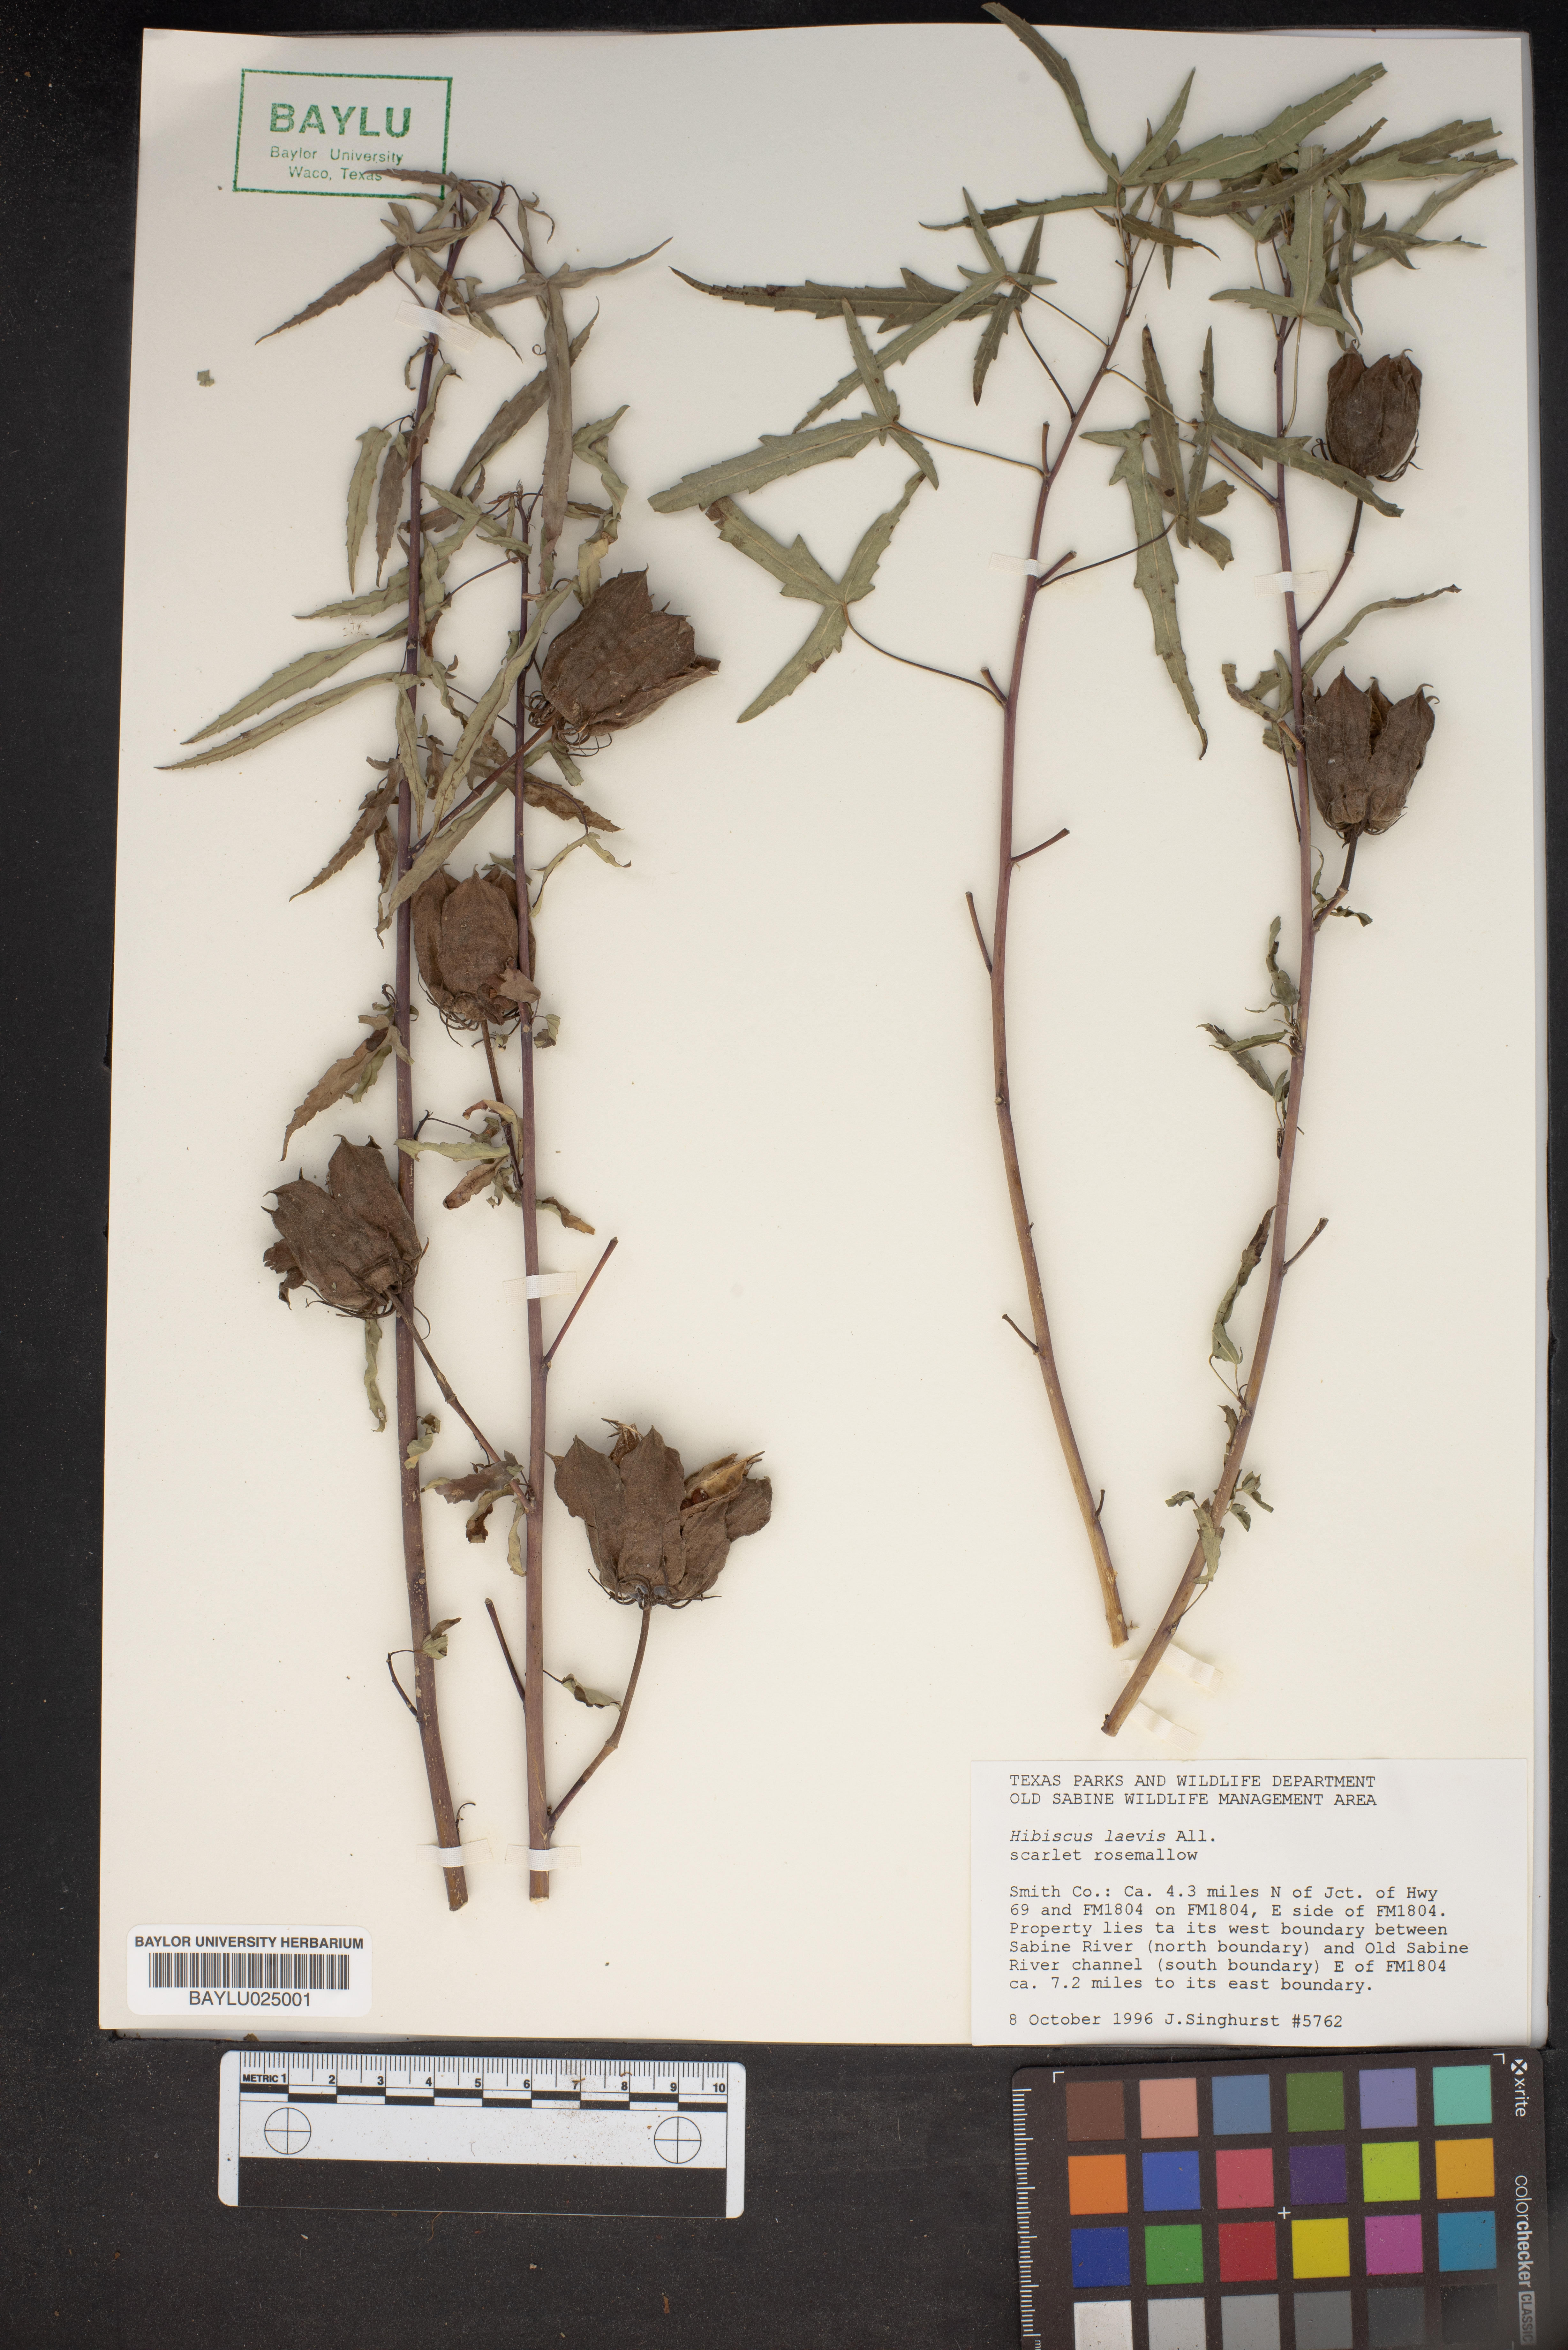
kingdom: Plantae
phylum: Tracheophyta
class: Magnoliopsida
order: Malvales
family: Malvaceae
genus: Hibiscus
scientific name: Hibiscus laevis
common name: Scarlet rose-mallow
